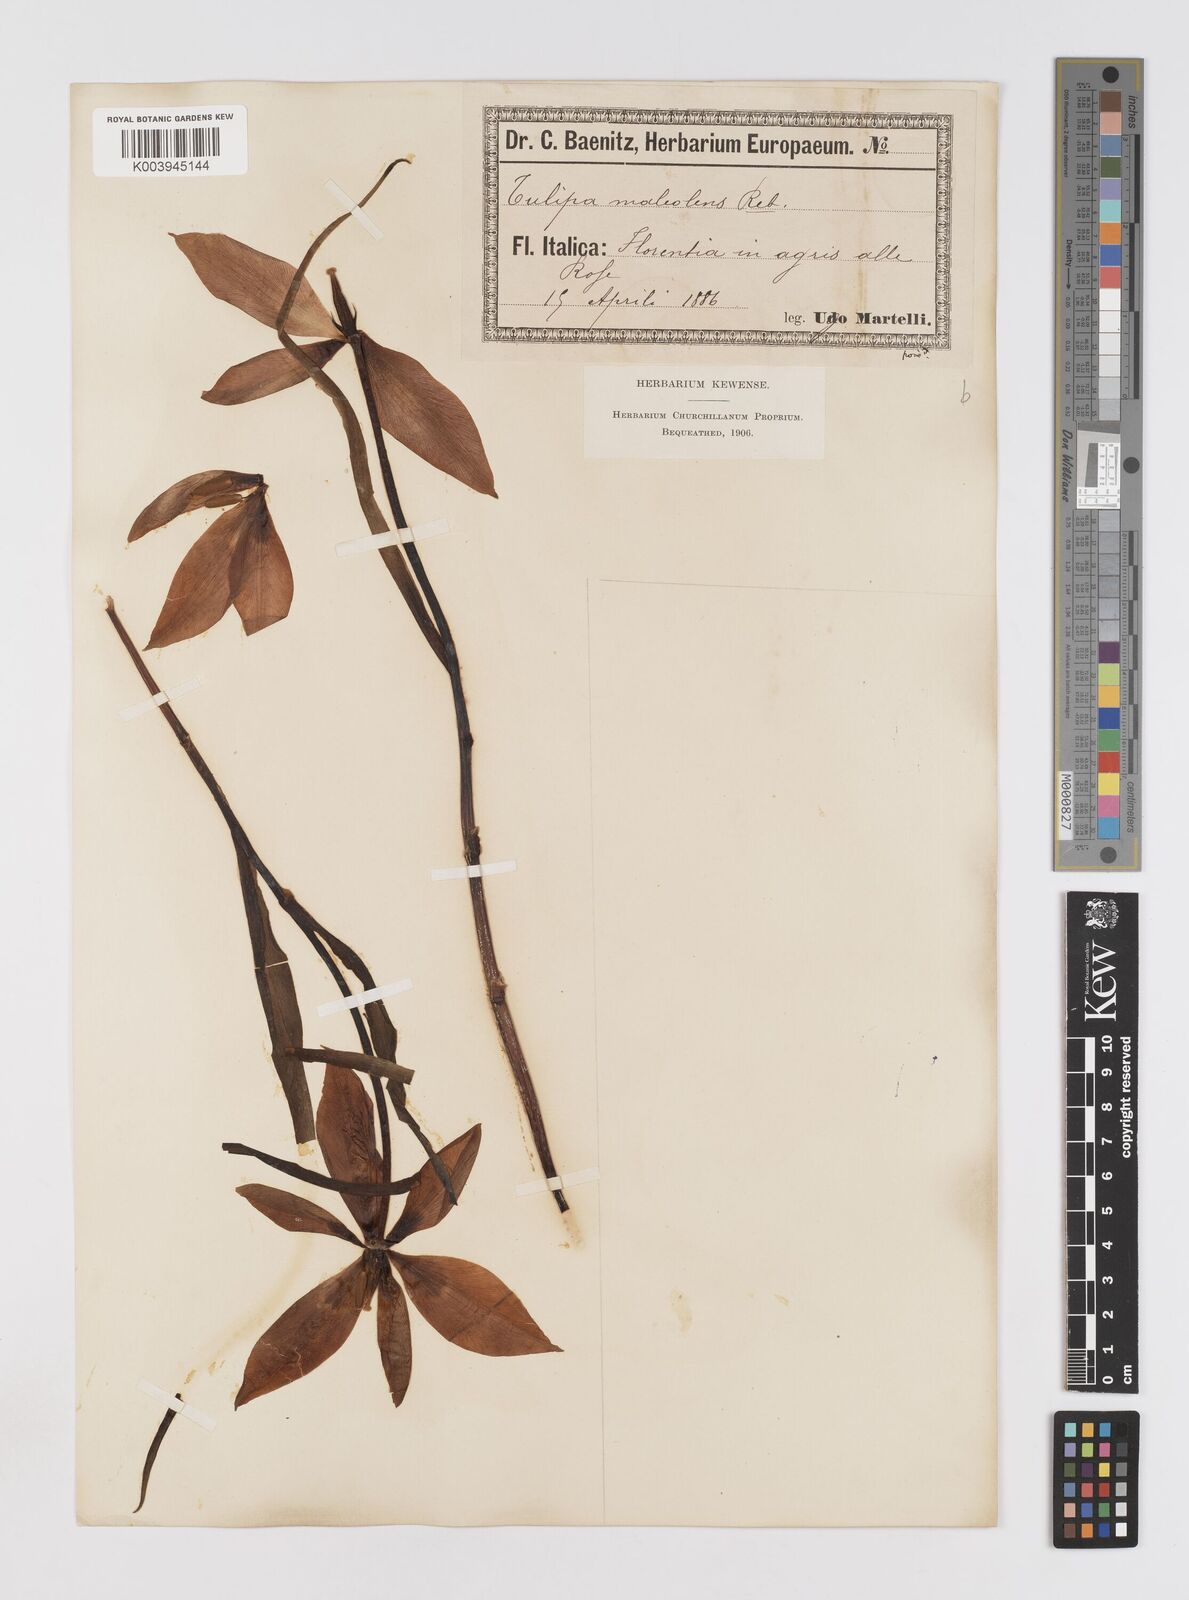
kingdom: Plantae
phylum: Tracheophyta
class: Liliopsida
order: Liliales
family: Liliaceae
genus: Tulipa
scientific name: Tulipa agenensis
